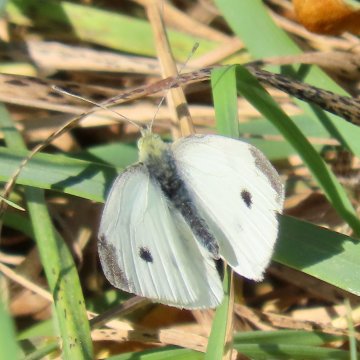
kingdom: Animalia
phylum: Arthropoda
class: Insecta
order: Lepidoptera
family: Pieridae
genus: Pieris
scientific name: Pieris rapae
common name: Cabbage White
